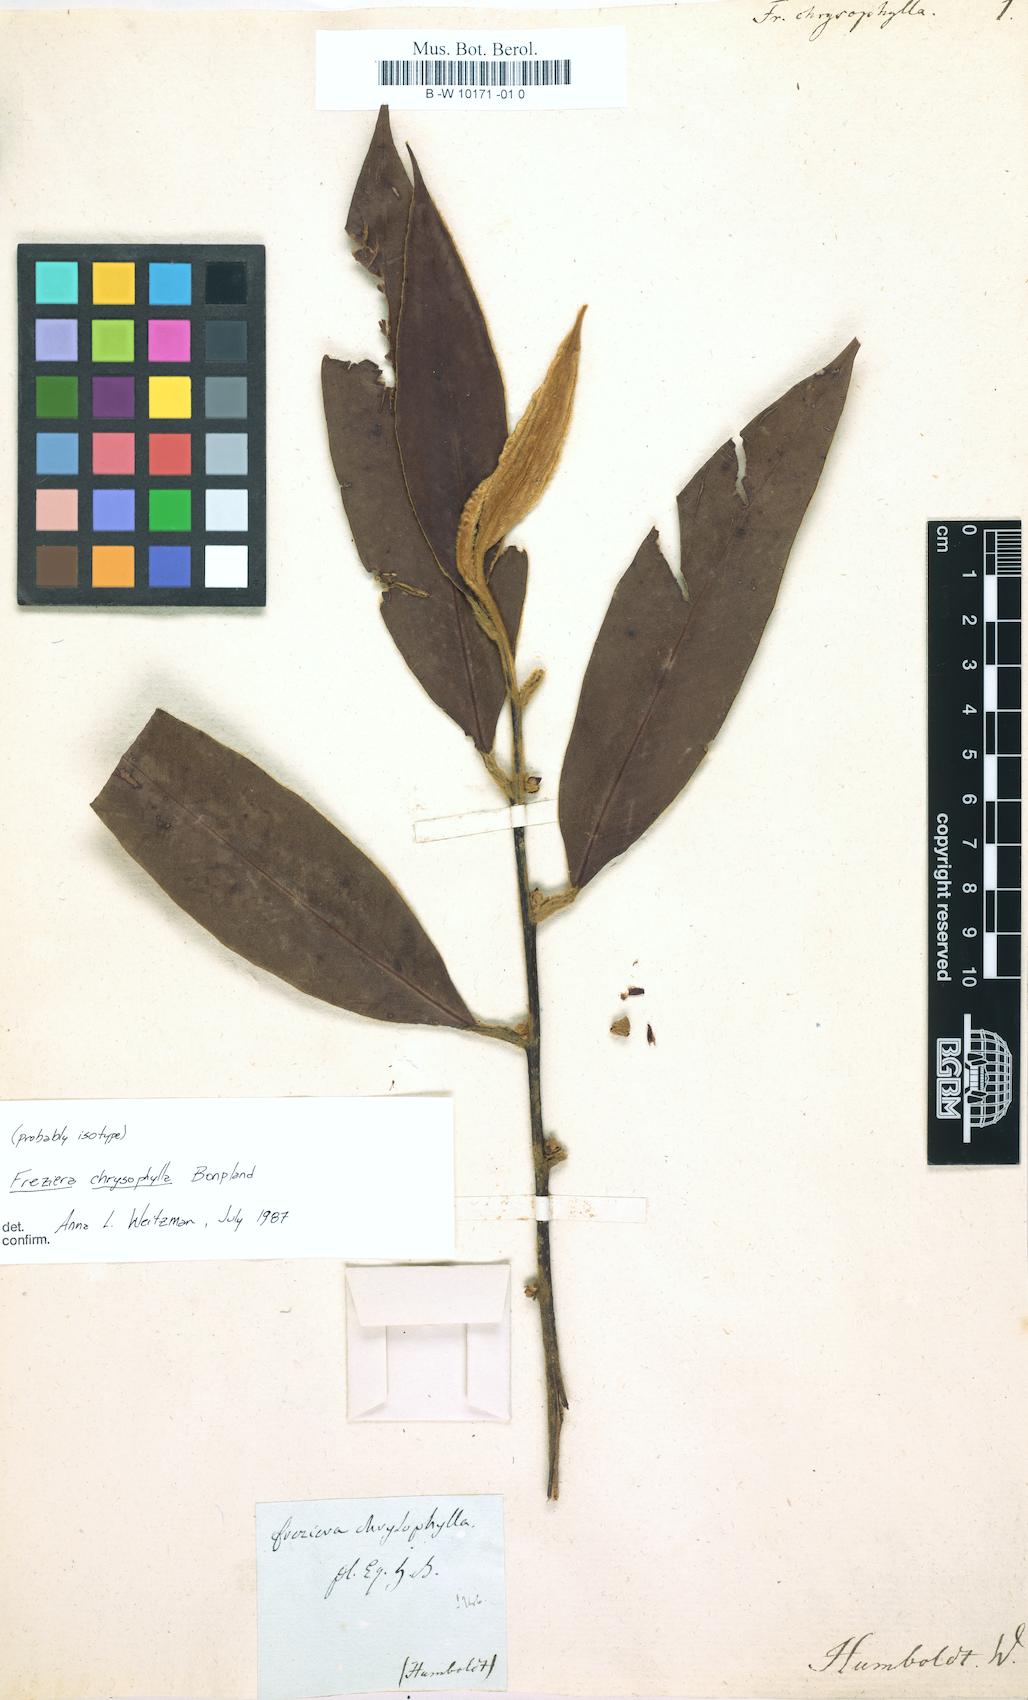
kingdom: Plantae
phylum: Tracheophyta
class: Magnoliopsida
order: Ericales
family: Pentaphylacaceae
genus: Freziera
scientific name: Freziera chrysophylla
